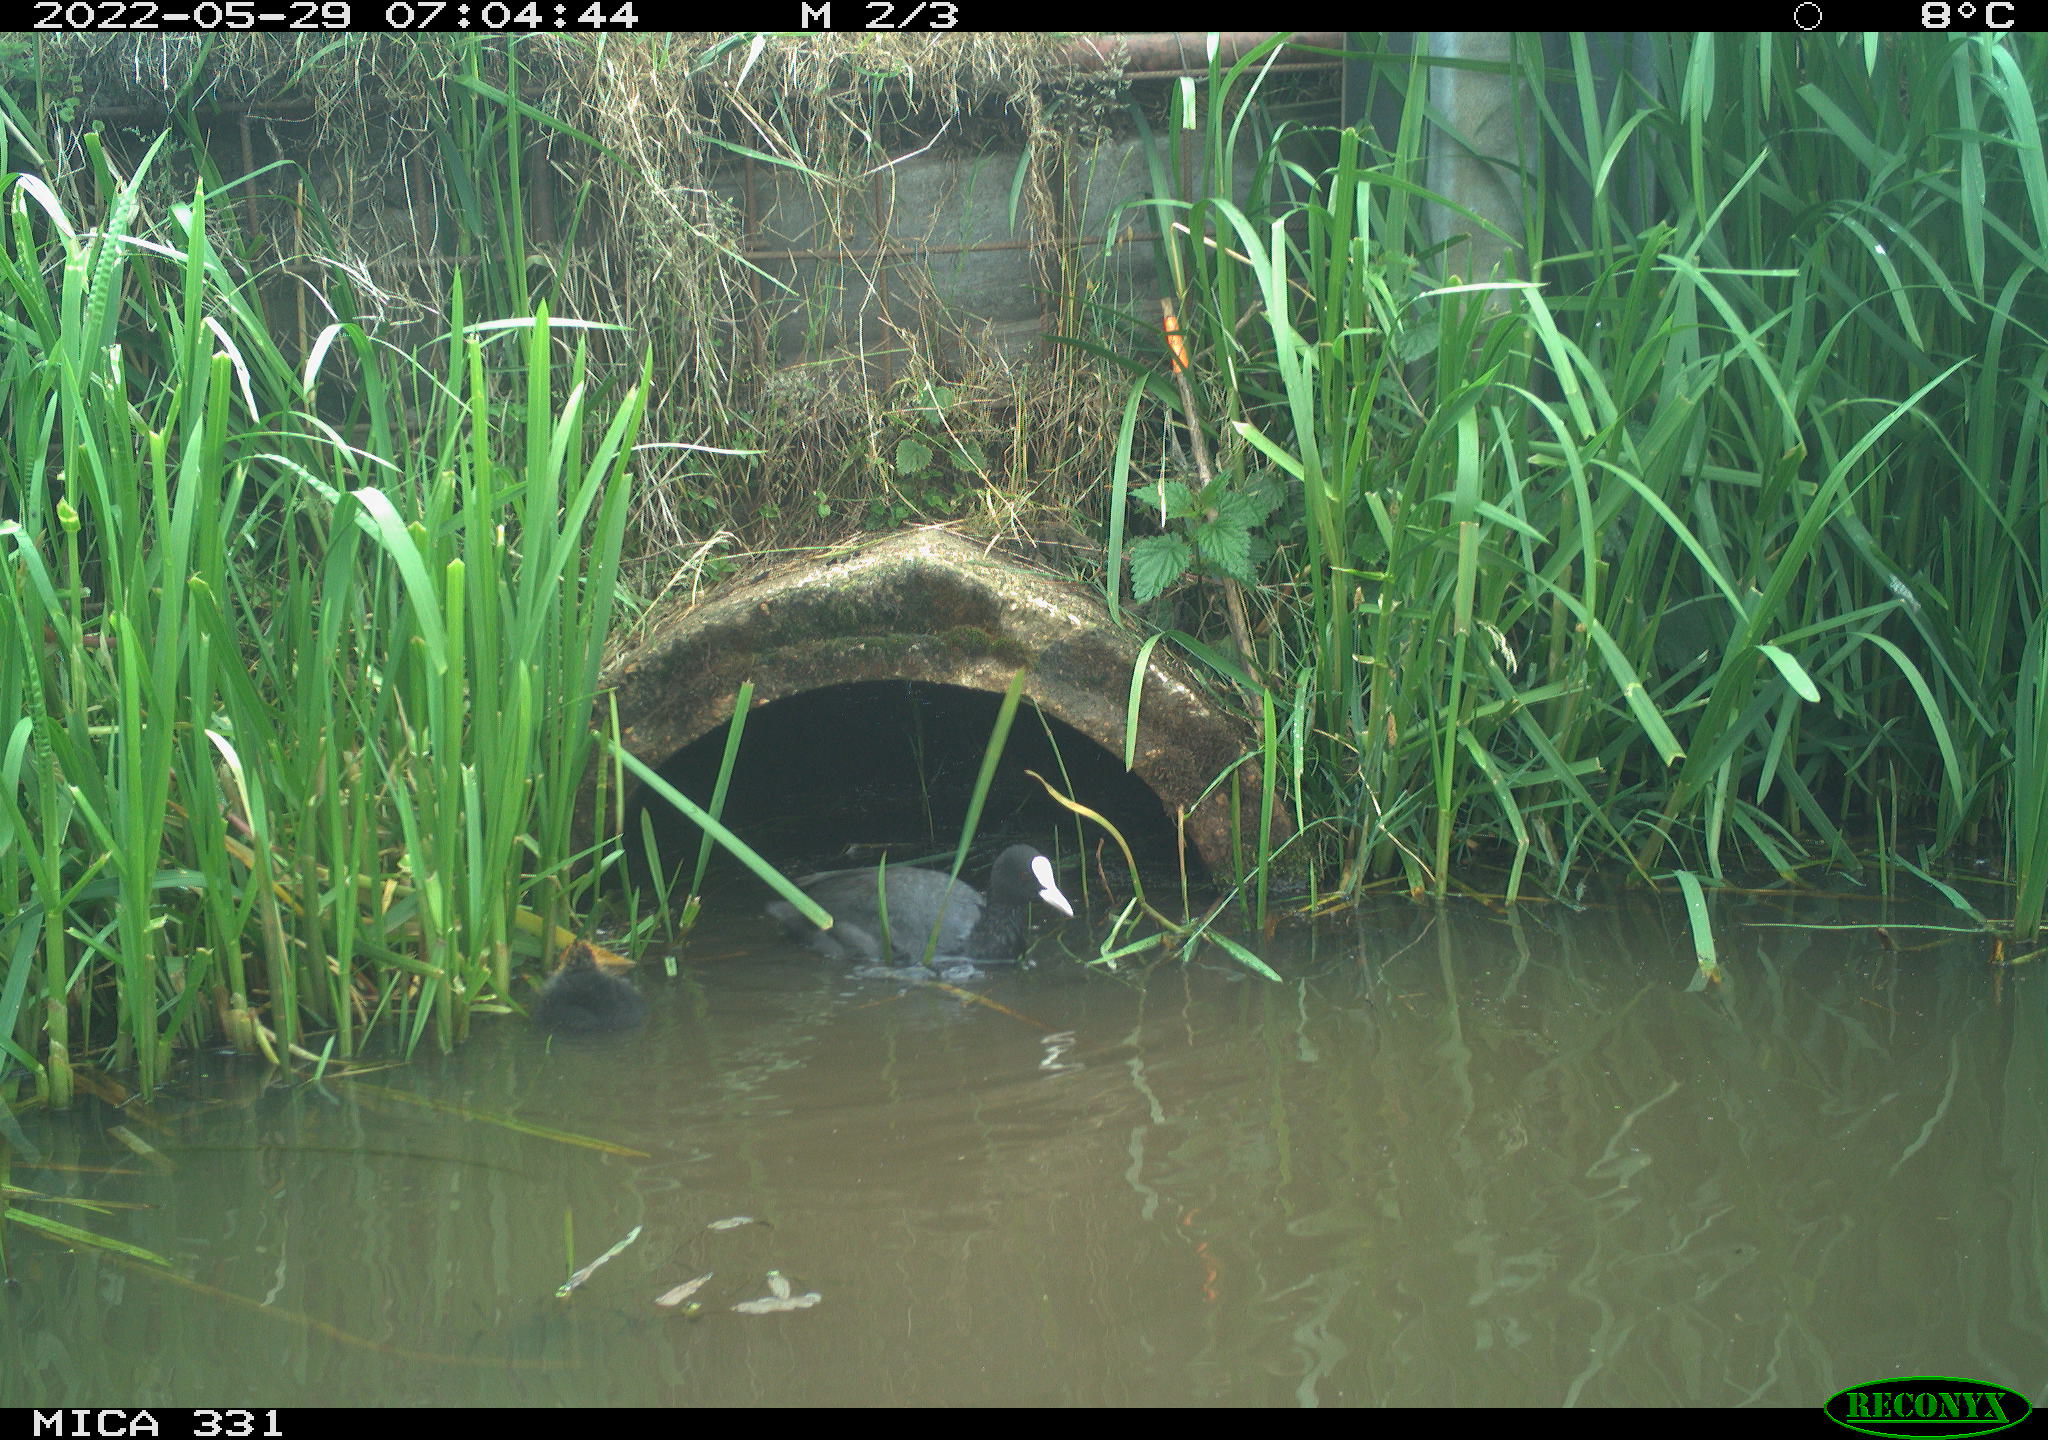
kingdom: Animalia
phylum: Chordata
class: Aves
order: Gruiformes
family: Rallidae
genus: Fulica
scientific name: Fulica atra
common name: Eurasian coot
